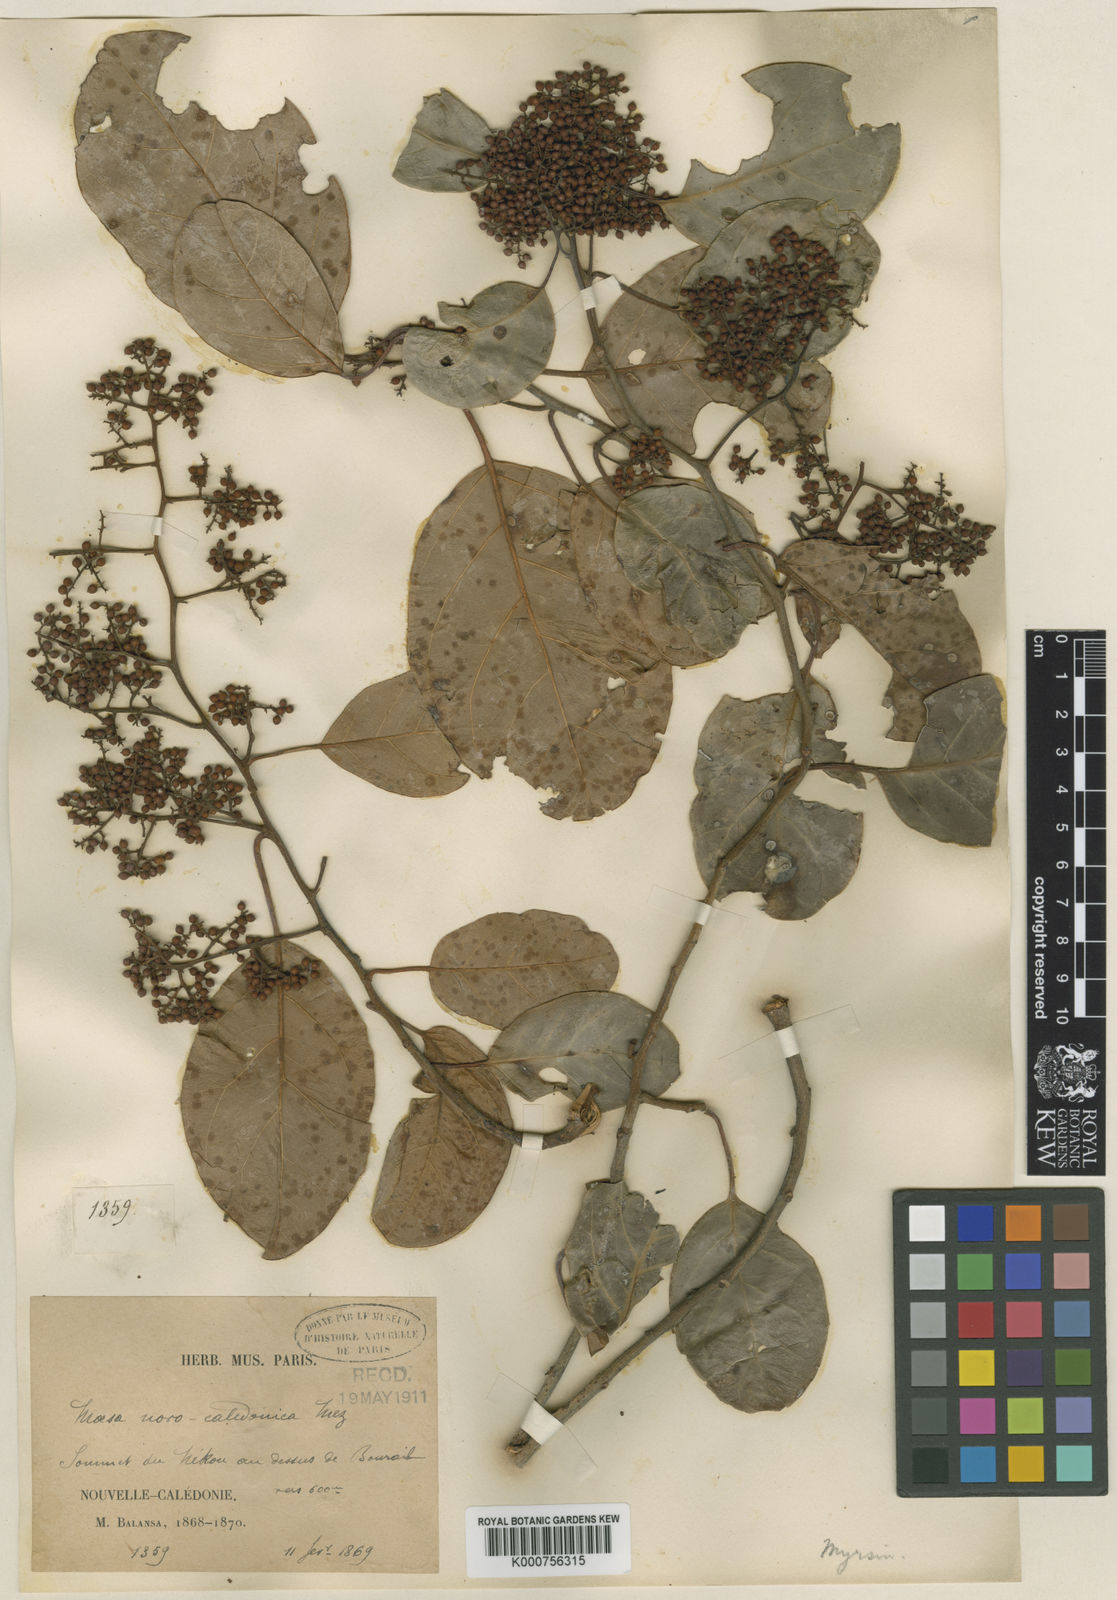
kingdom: Plantae
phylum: Tracheophyta
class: Magnoliopsida
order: Ericales
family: Primulaceae
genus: Maesa
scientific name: Maesa novocaledonica
